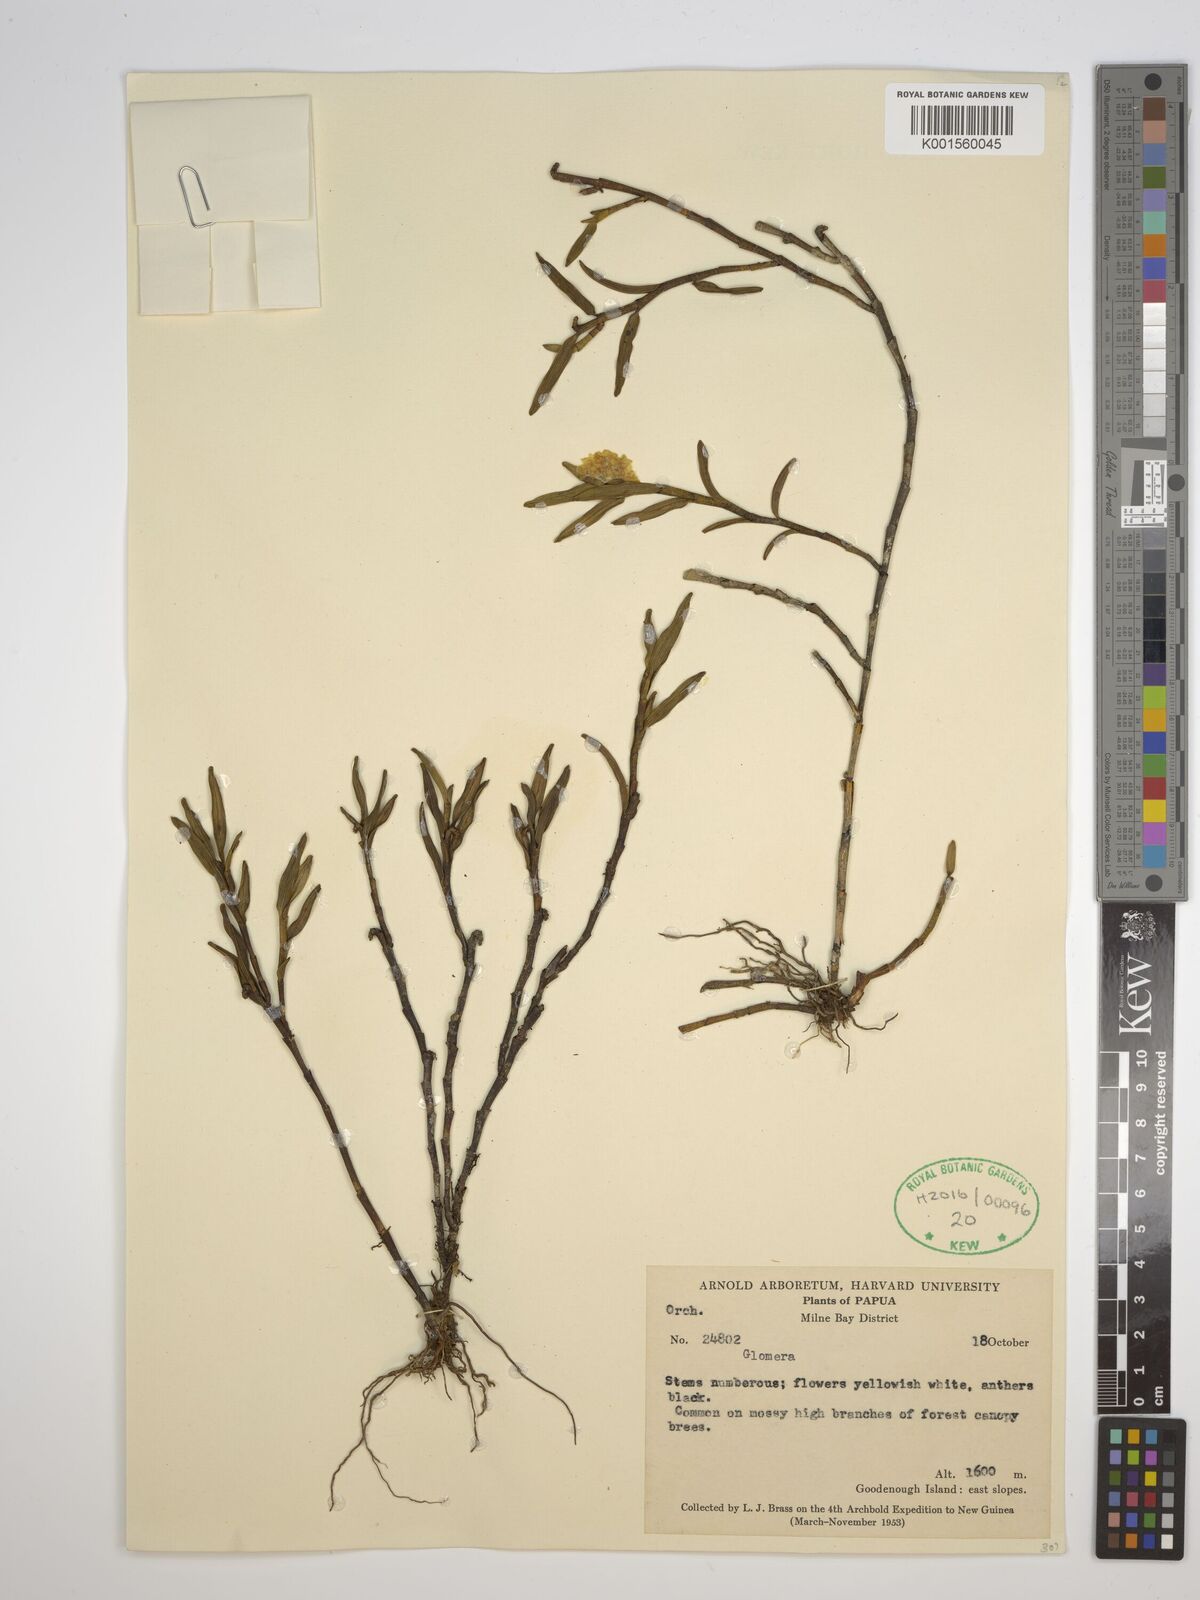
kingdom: Plantae
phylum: Tracheophyta
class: Liliopsida
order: Asparagales
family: Orchidaceae
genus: Glomera
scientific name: Glomera
